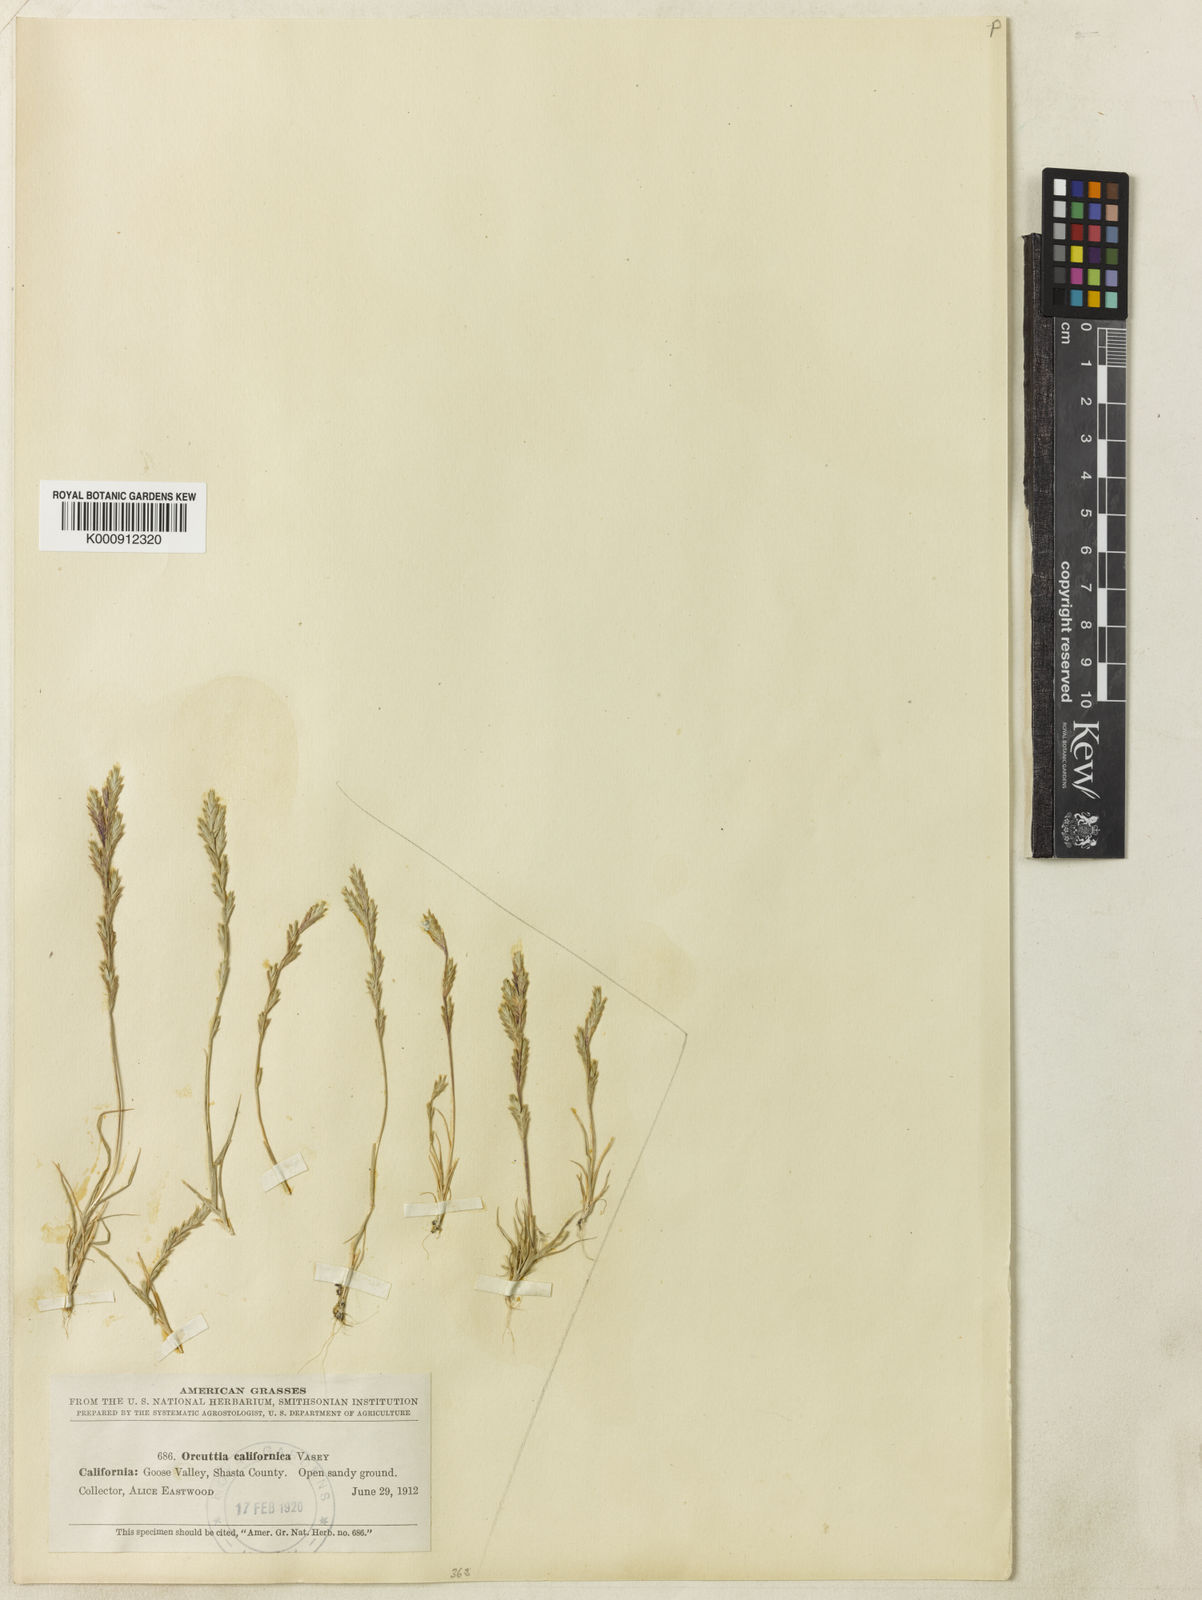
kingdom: Plantae
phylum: Tracheophyta
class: Liliopsida
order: Poales
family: Poaceae
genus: Orcuttia
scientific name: Orcuttia tenuis
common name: Slender orcutt grass
